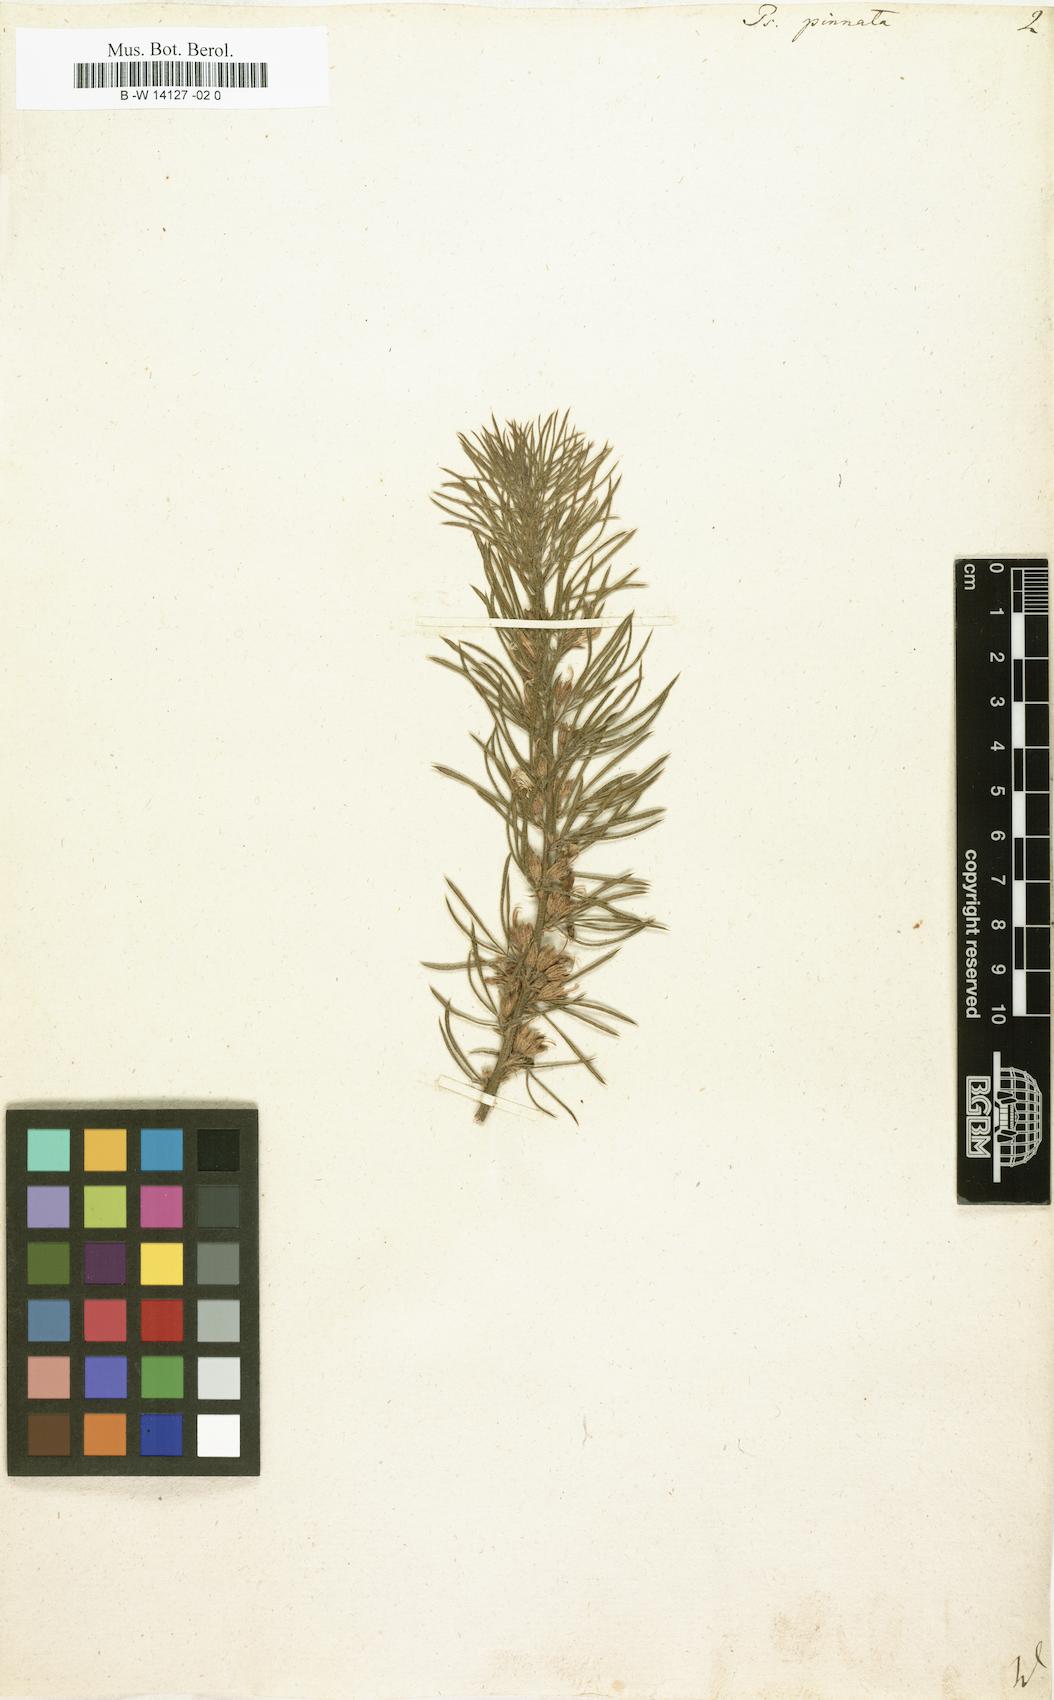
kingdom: Plantae
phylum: Tracheophyta
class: Magnoliopsida
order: Fabales
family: Fabaceae
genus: Psoralea
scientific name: Psoralea pinnata
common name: African scurfpea
